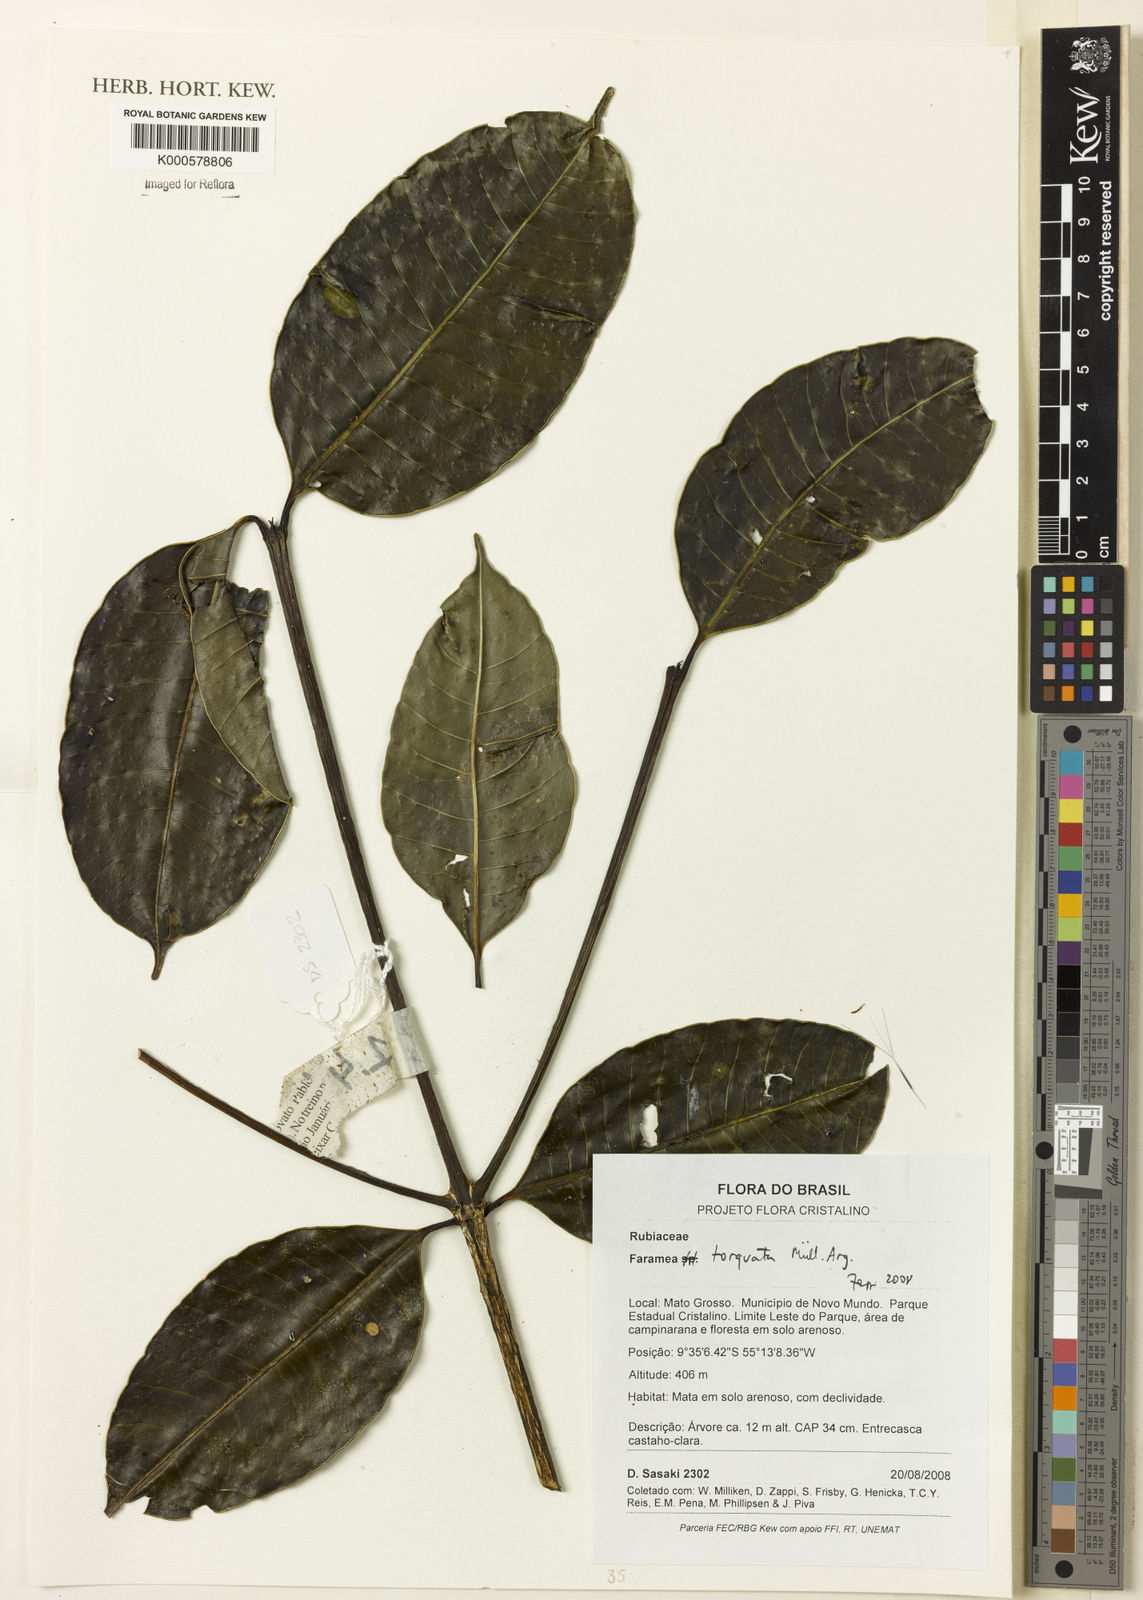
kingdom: Plantae
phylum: Tracheophyta
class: Magnoliopsida
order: Gentianales
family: Rubiaceae
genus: Faramea
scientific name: Faramea
